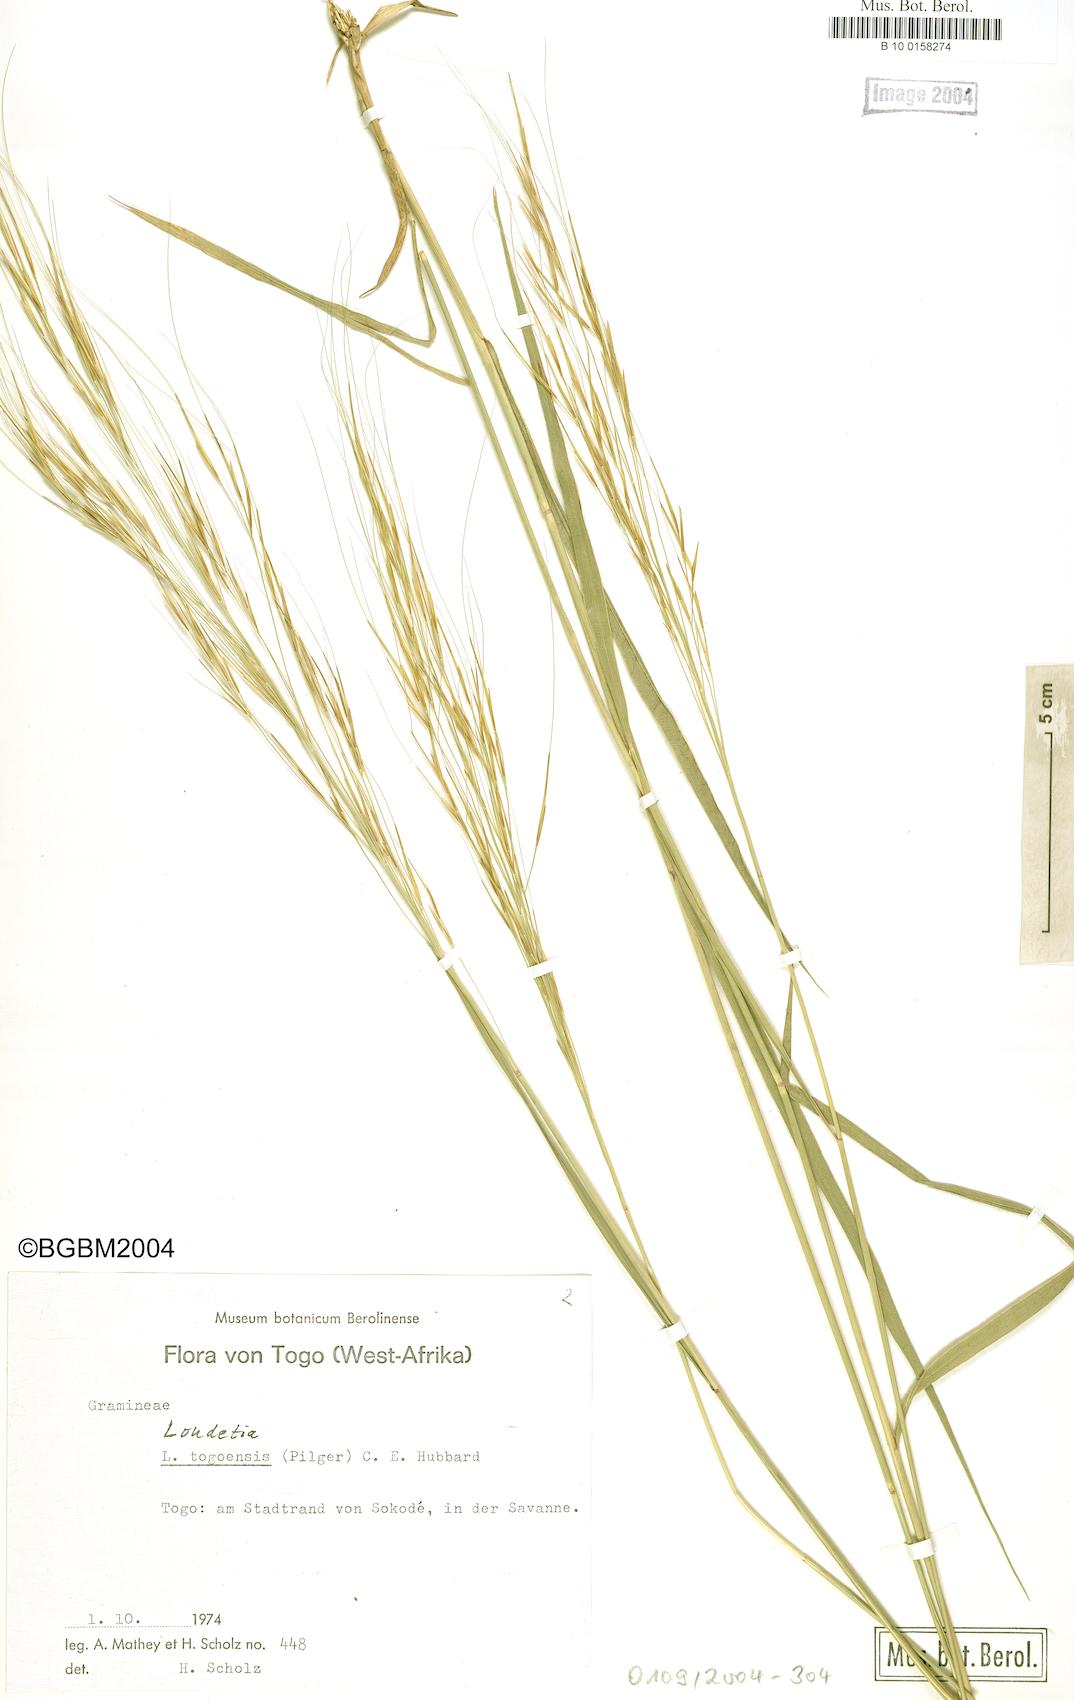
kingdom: Plantae
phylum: Tracheophyta
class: Liliopsida
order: Poales
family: Poaceae
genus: Loudetia
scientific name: Loudetia togoensis
